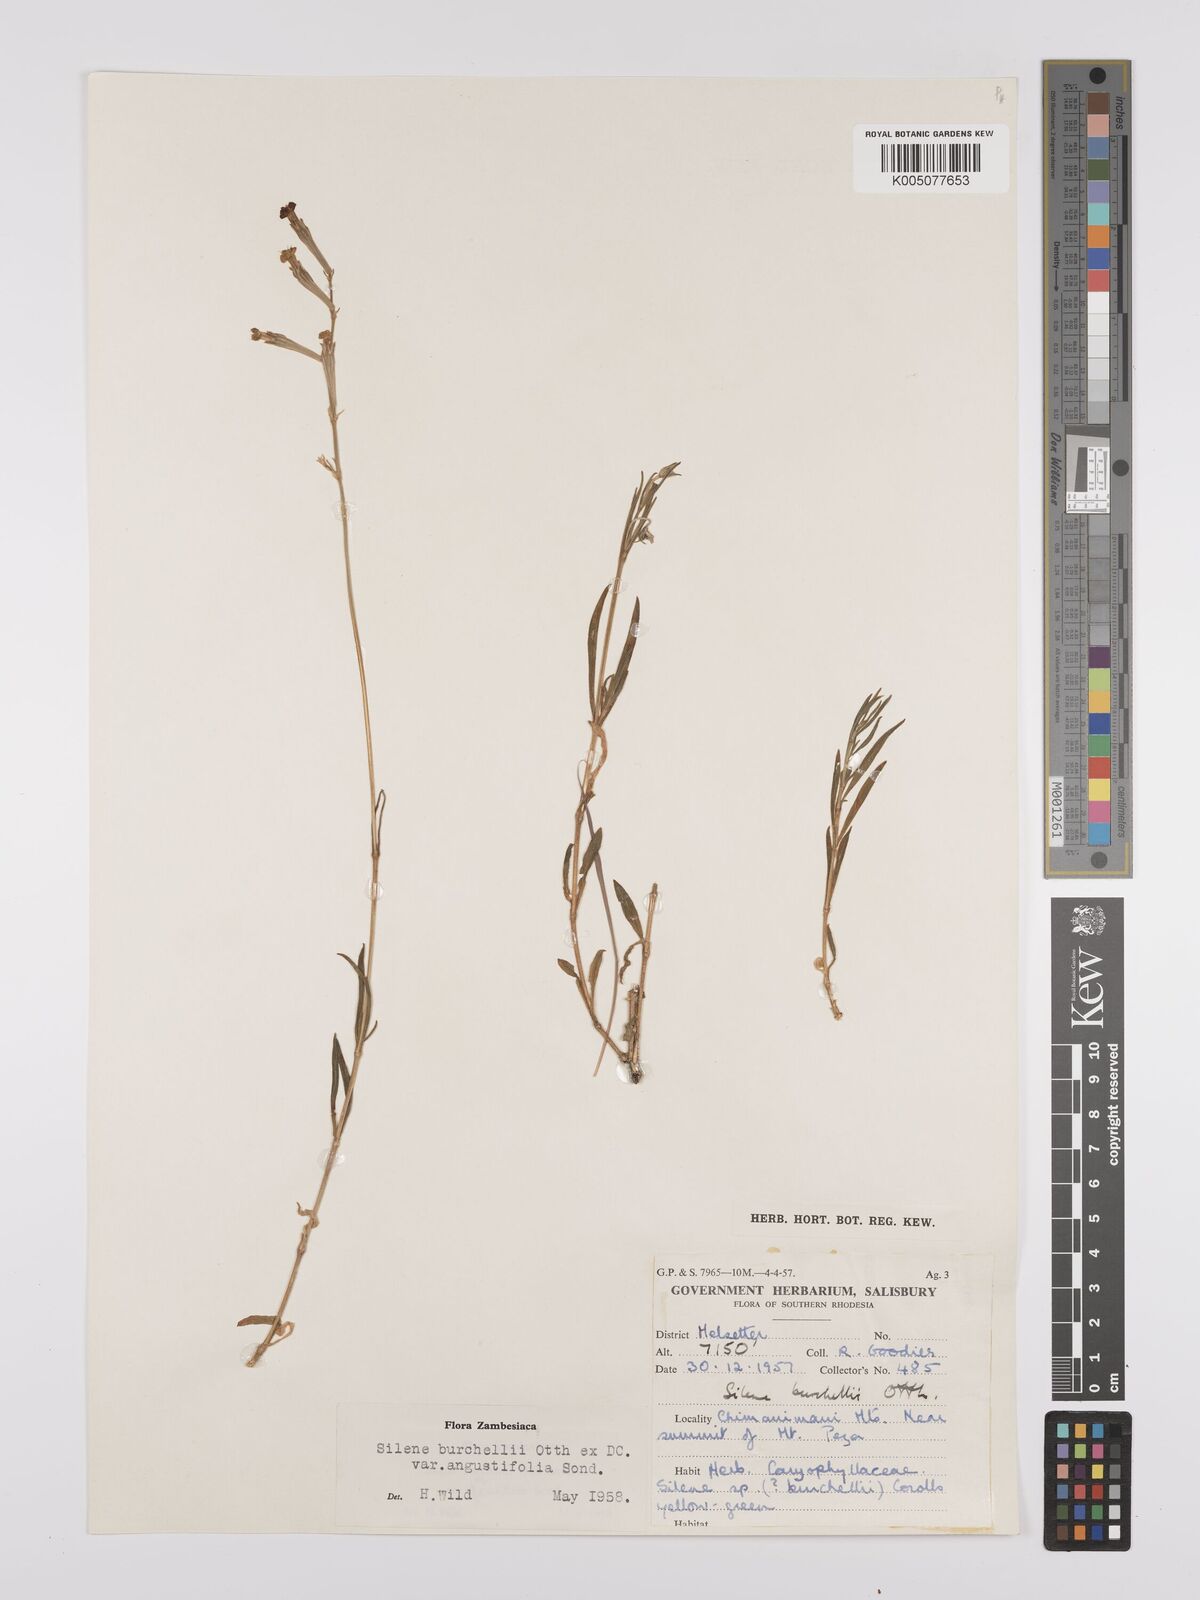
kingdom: Plantae
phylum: Tracheophyta
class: Magnoliopsida
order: Caryophyllales
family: Caryophyllaceae
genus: Silene
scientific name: Silene burchellii
